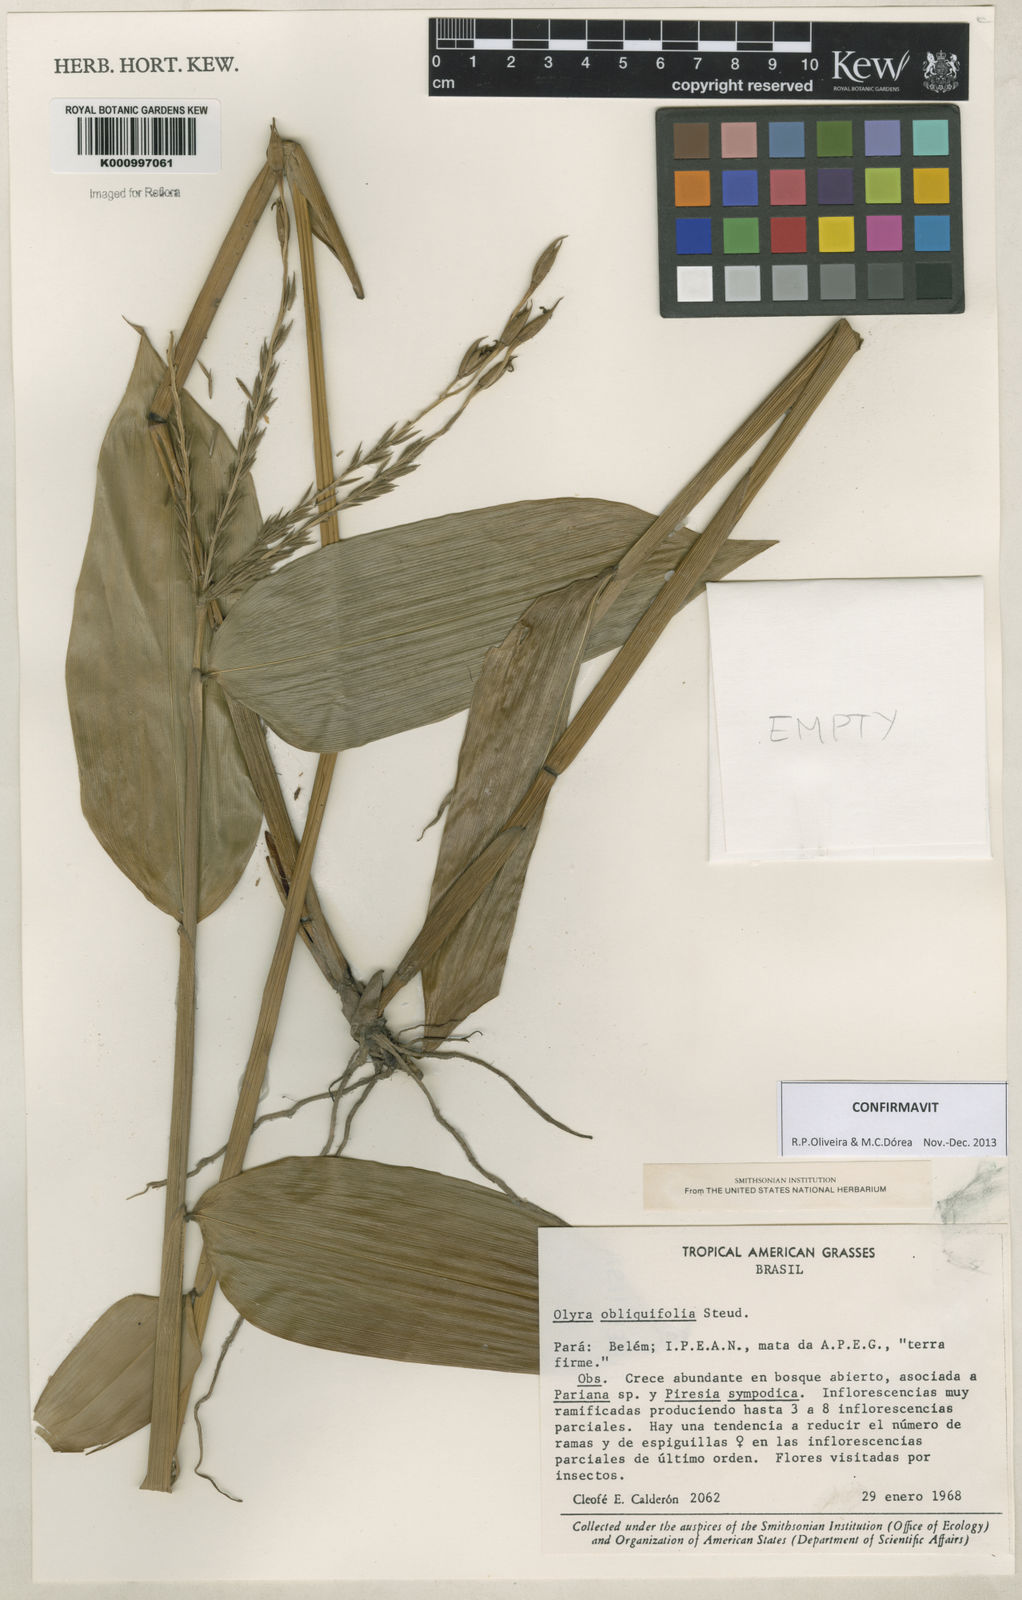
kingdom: Plantae
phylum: Tracheophyta
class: Liliopsida
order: Poales
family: Poaceae
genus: Olyra
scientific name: Olyra obliquifolia
